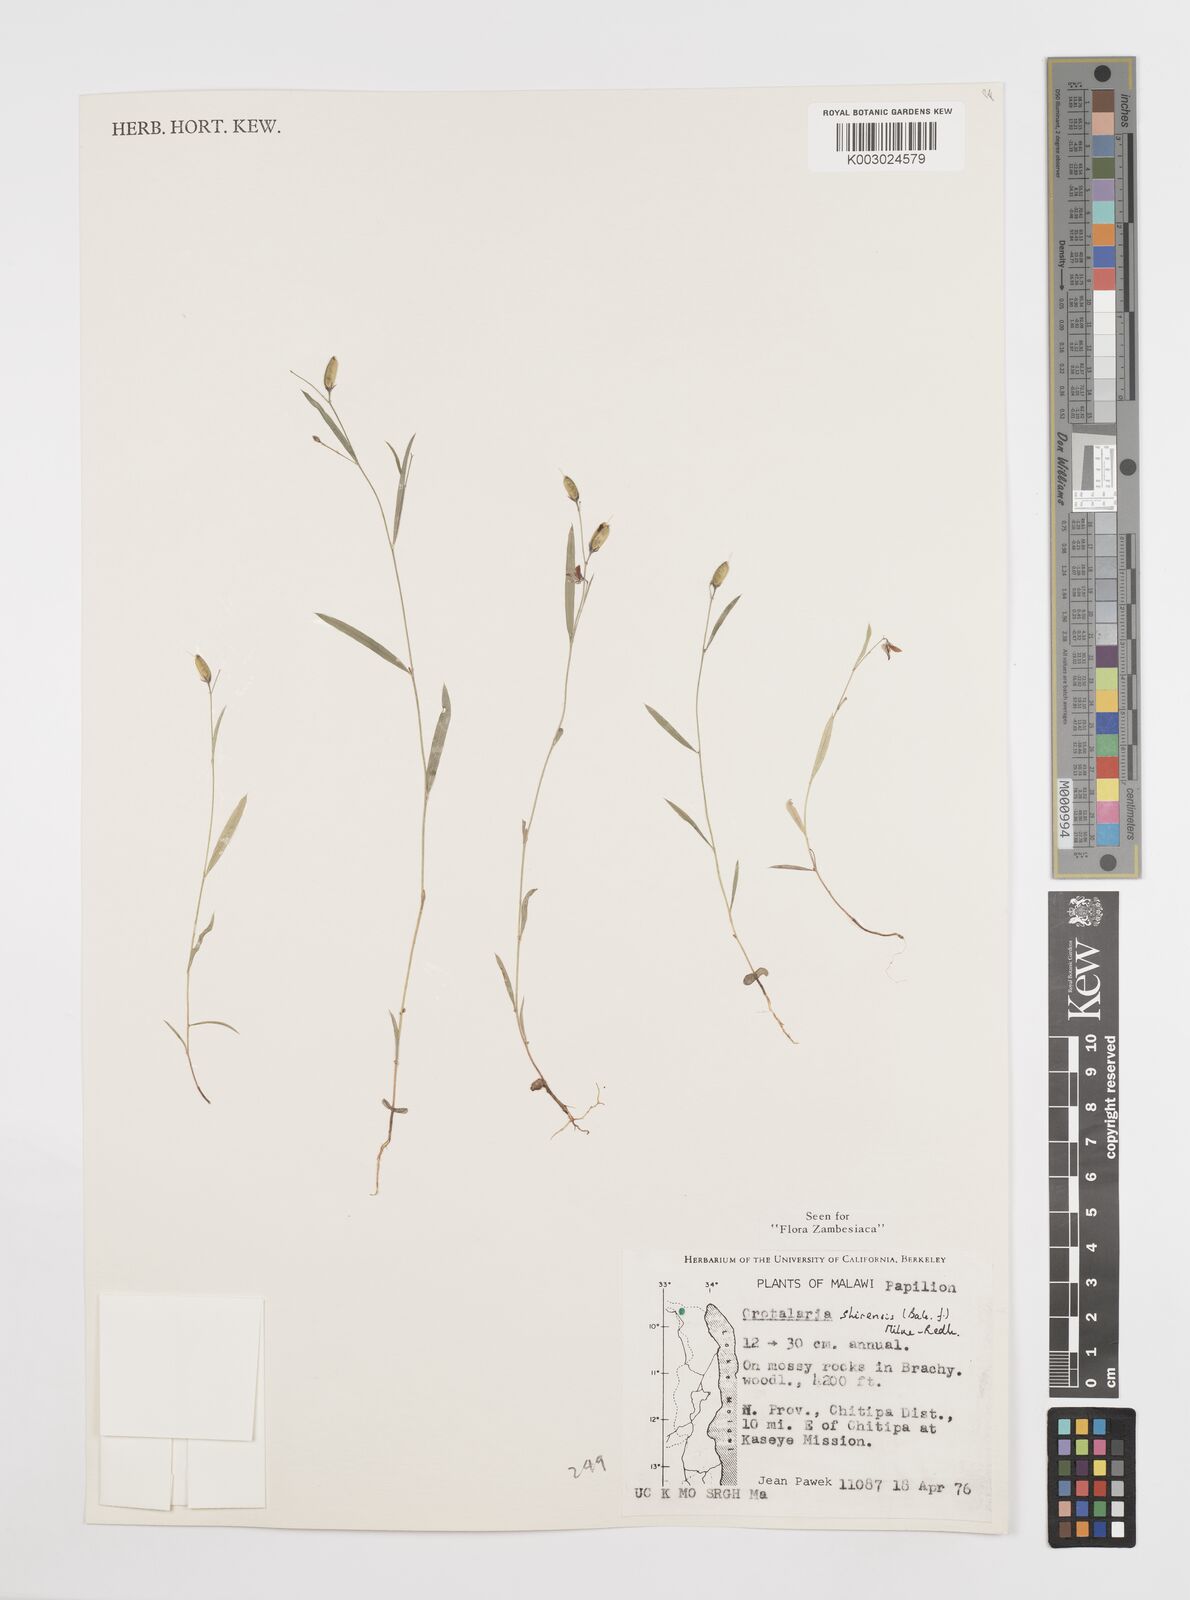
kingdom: Plantae
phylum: Tracheophyta
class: Magnoliopsida
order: Fabales
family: Fabaceae
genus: Crotalaria
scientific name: Crotalaria shirensis
